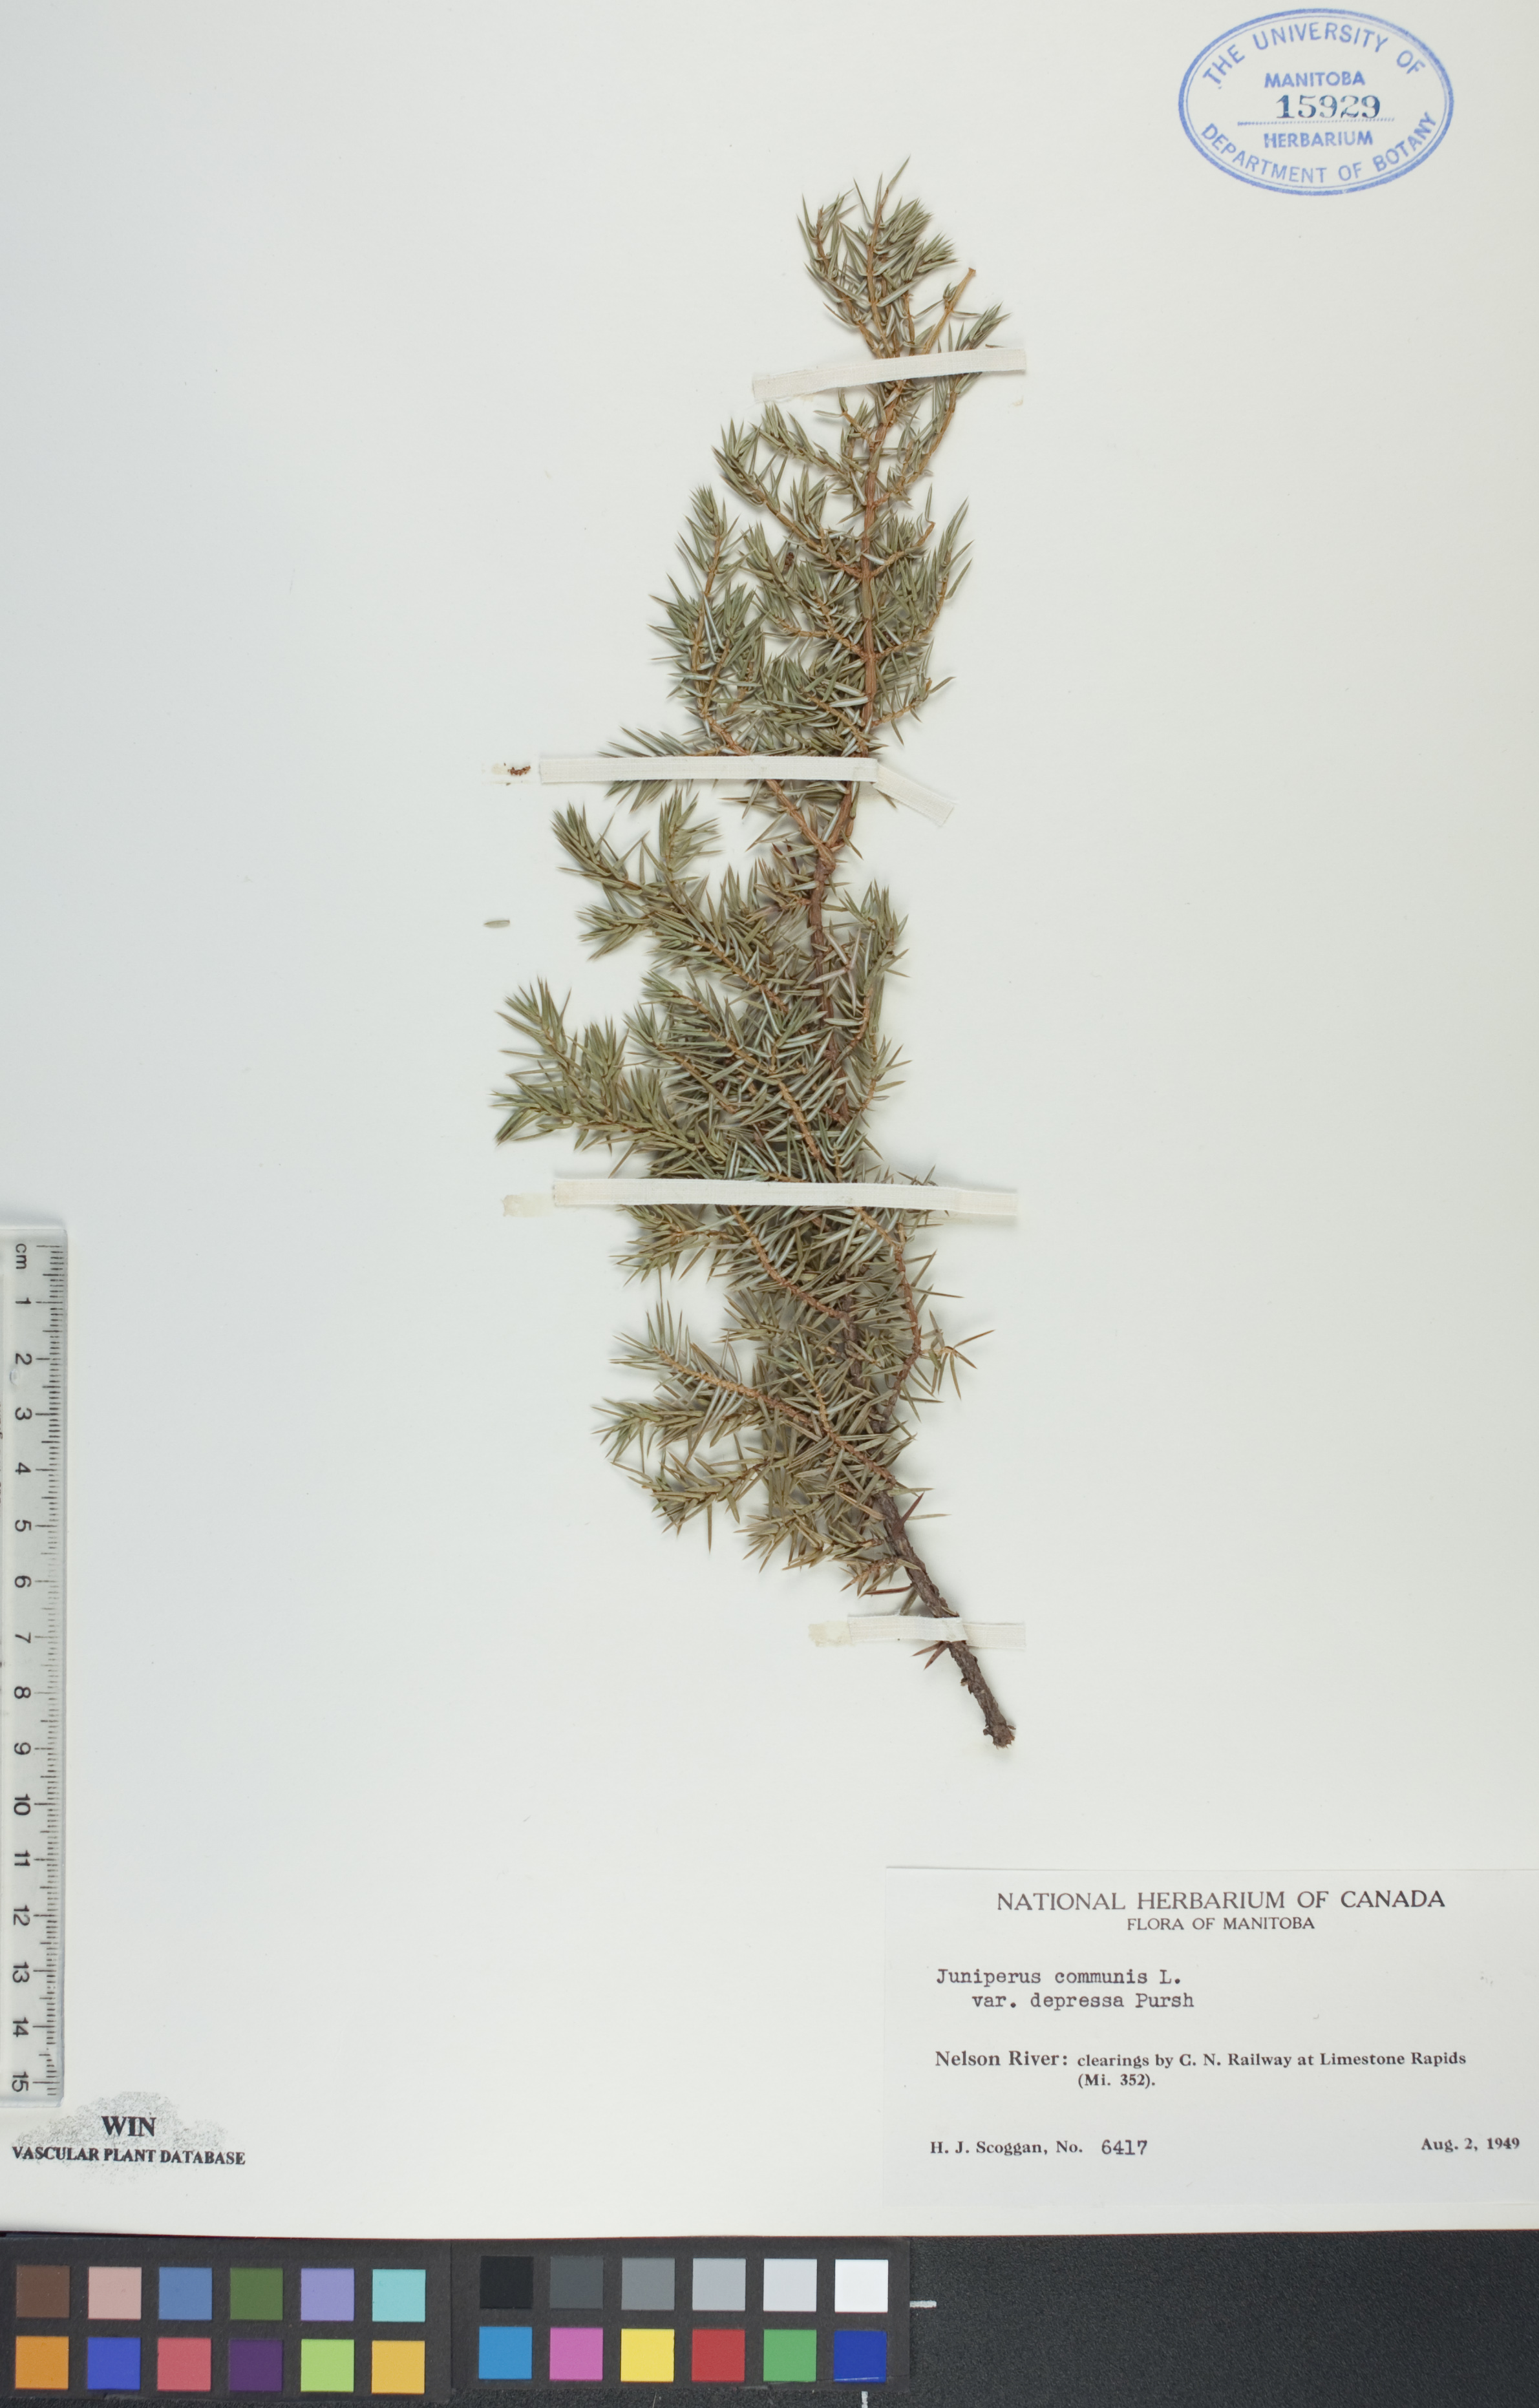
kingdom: Plantae
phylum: Tracheophyta
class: Pinopsida
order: Pinales
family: Cupressaceae
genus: Juniperus
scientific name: Juniperus communis
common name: Common juniper
